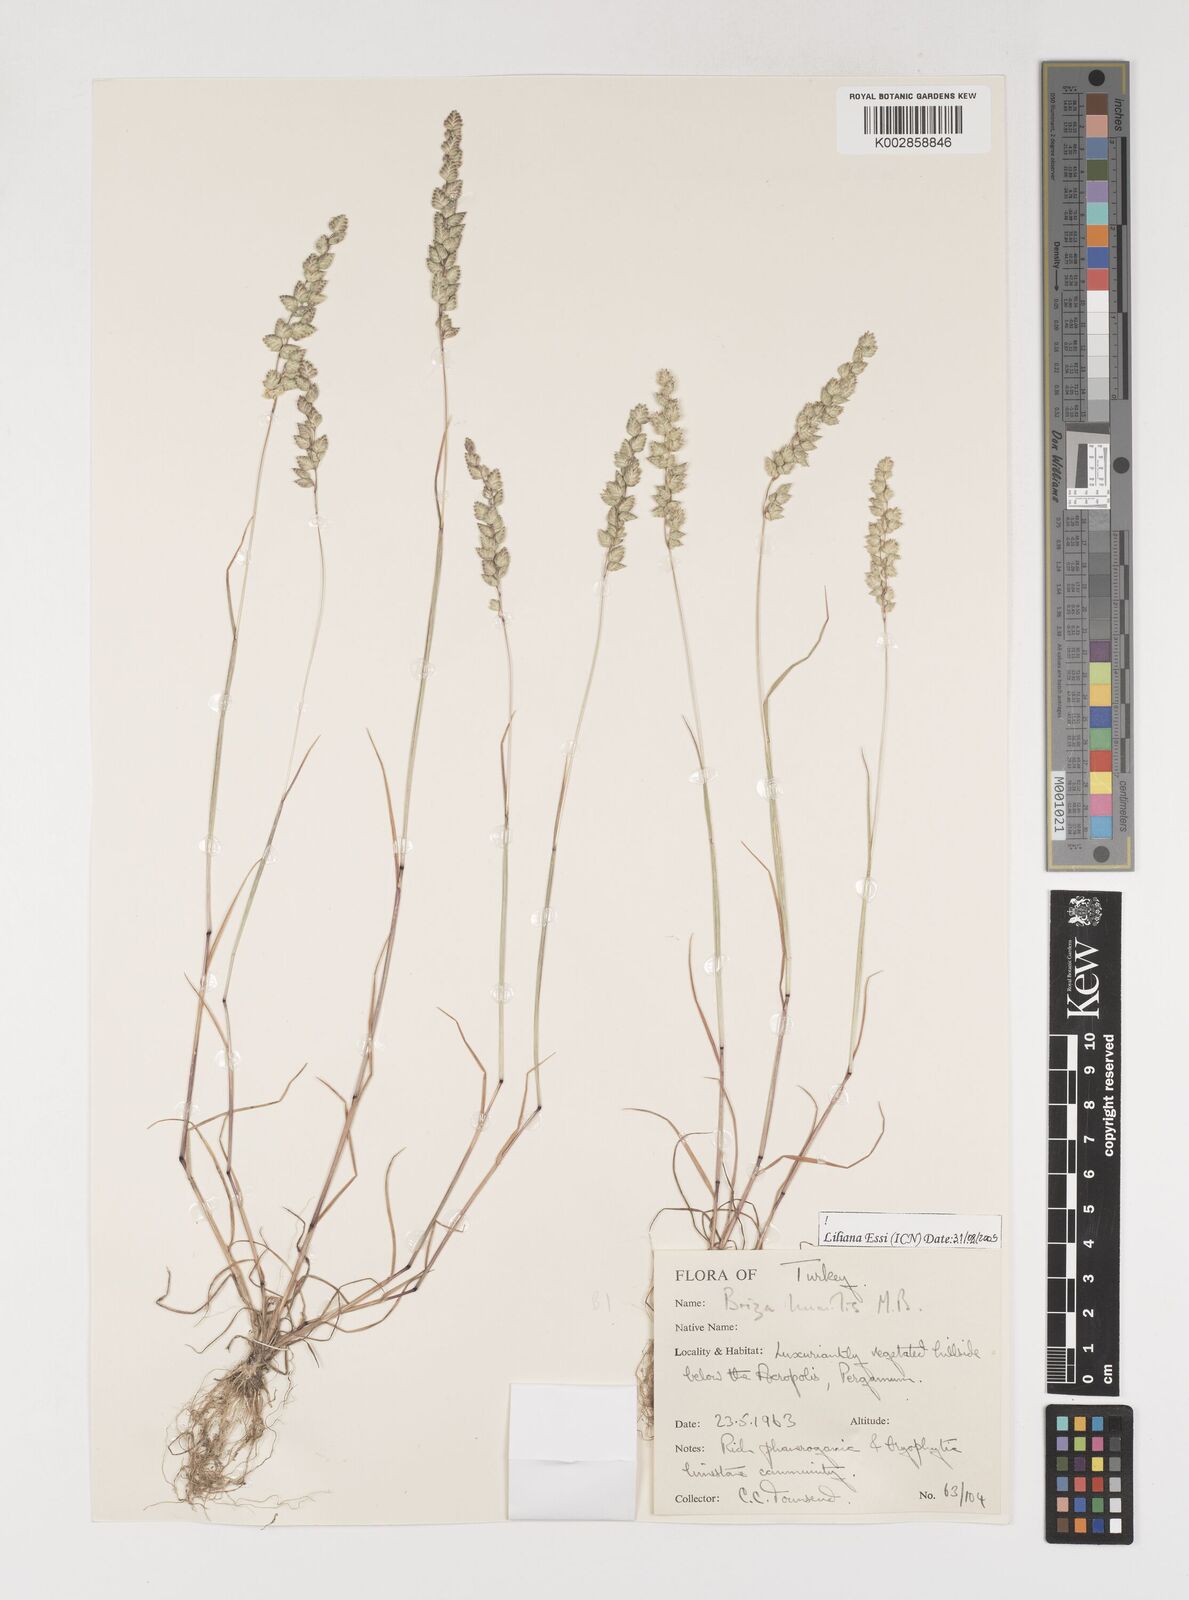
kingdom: Plantae
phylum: Tracheophyta
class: Liliopsida
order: Poales
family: Poaceae
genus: Briza
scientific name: Briza humilis
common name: Spiked quaking grass
